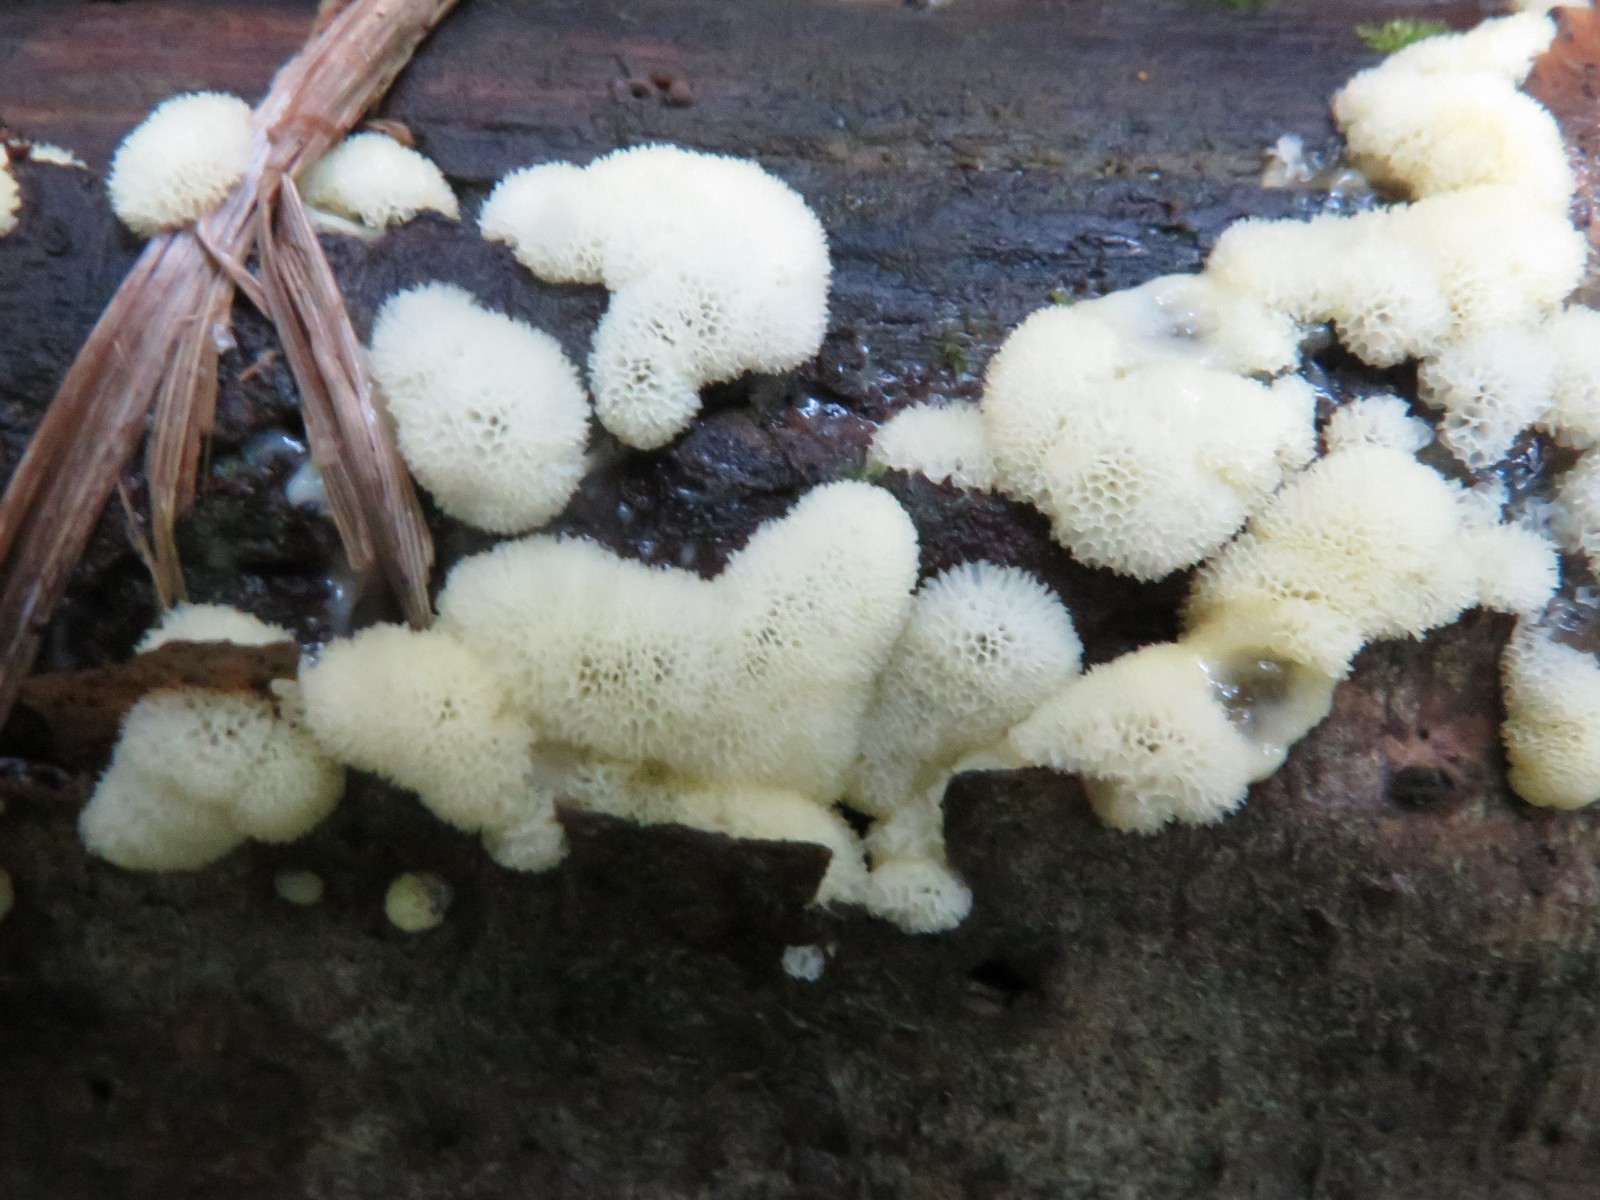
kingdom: Protozoa
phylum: Mycetozoa
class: Protosteliomycetes
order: Ceratiomyxales
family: Ceratiomyxaceae
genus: Ceratiomyxa
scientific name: Ceratiomyxa fruticulosa
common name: Honeycomb coral slime mold
